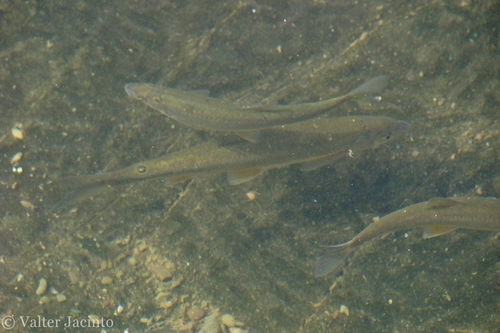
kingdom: Animalia
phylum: Chordata
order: Cypriniformes
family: Cyprinidae
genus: Iberochondrostoma
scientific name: Iberochondrostoma lemmingii
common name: Pardilla
